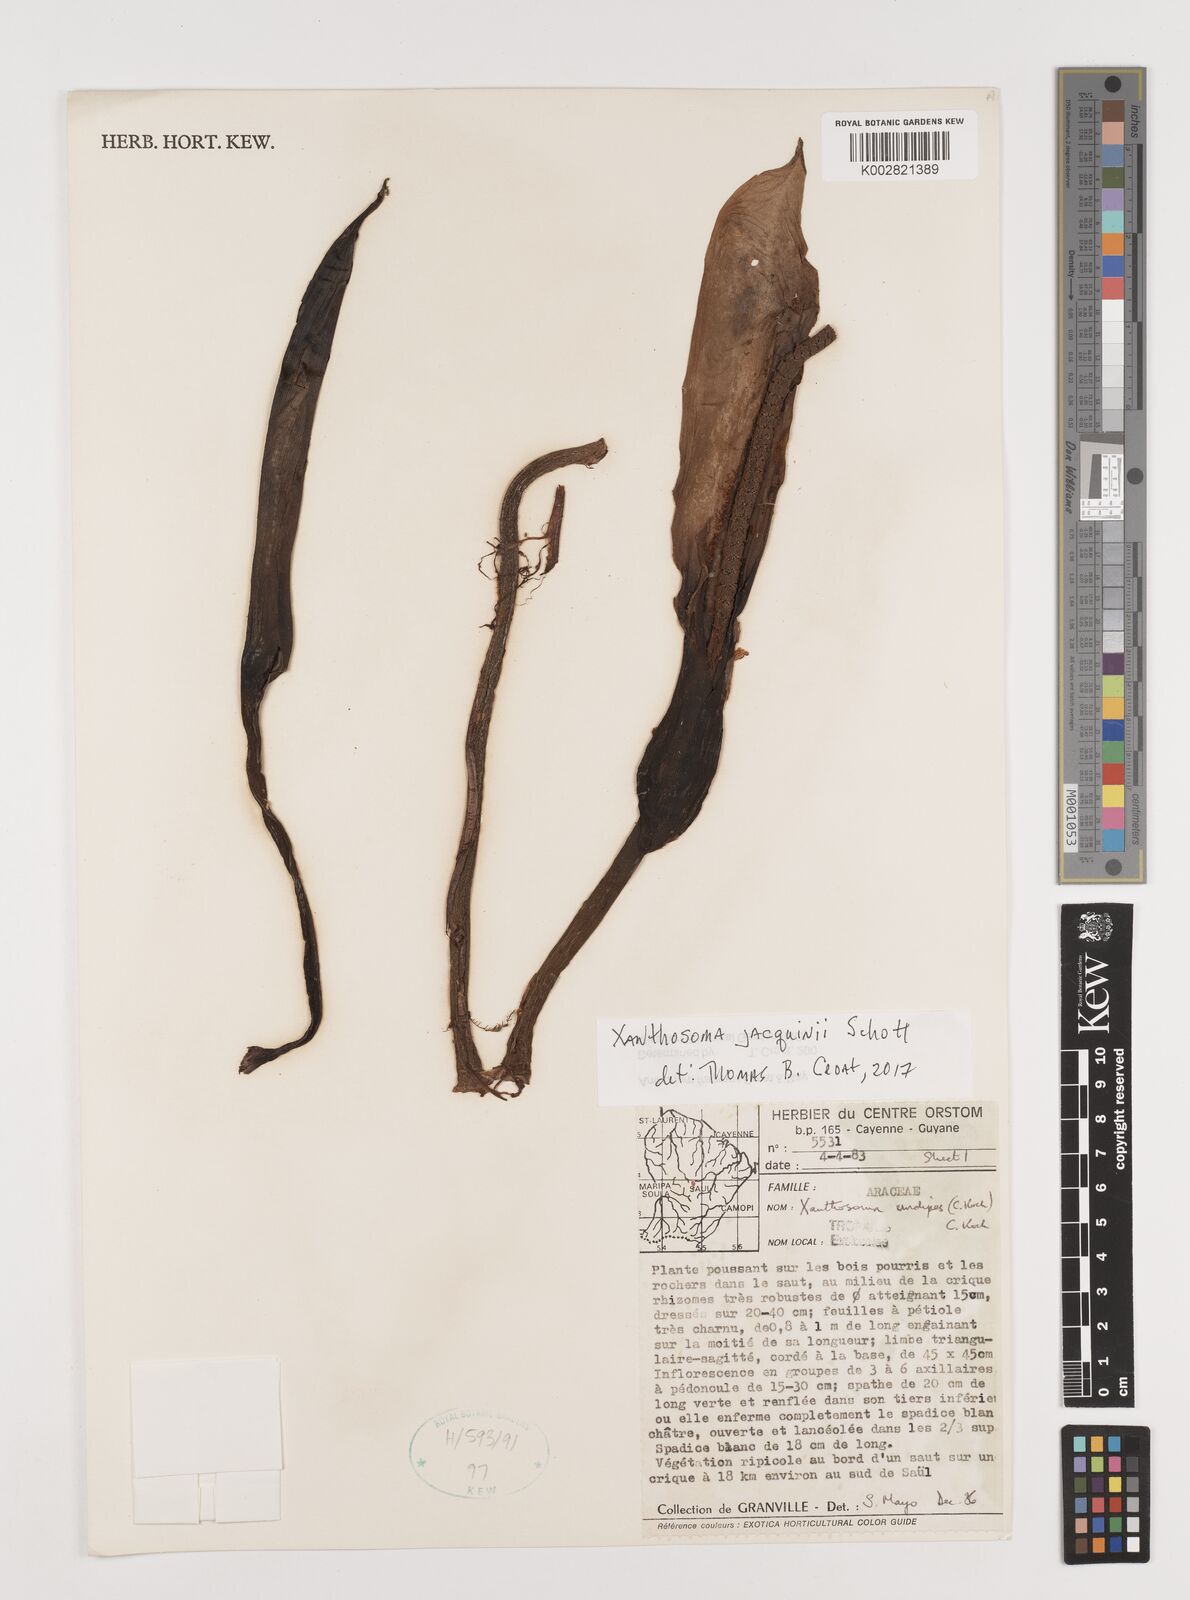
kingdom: Plantae
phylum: Tracheophyta
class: Liliopsida
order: Alismatales
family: Araceae
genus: Xanthosoma
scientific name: Xanthosoma sagittifolium
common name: Arrowleaf elephant's ear
